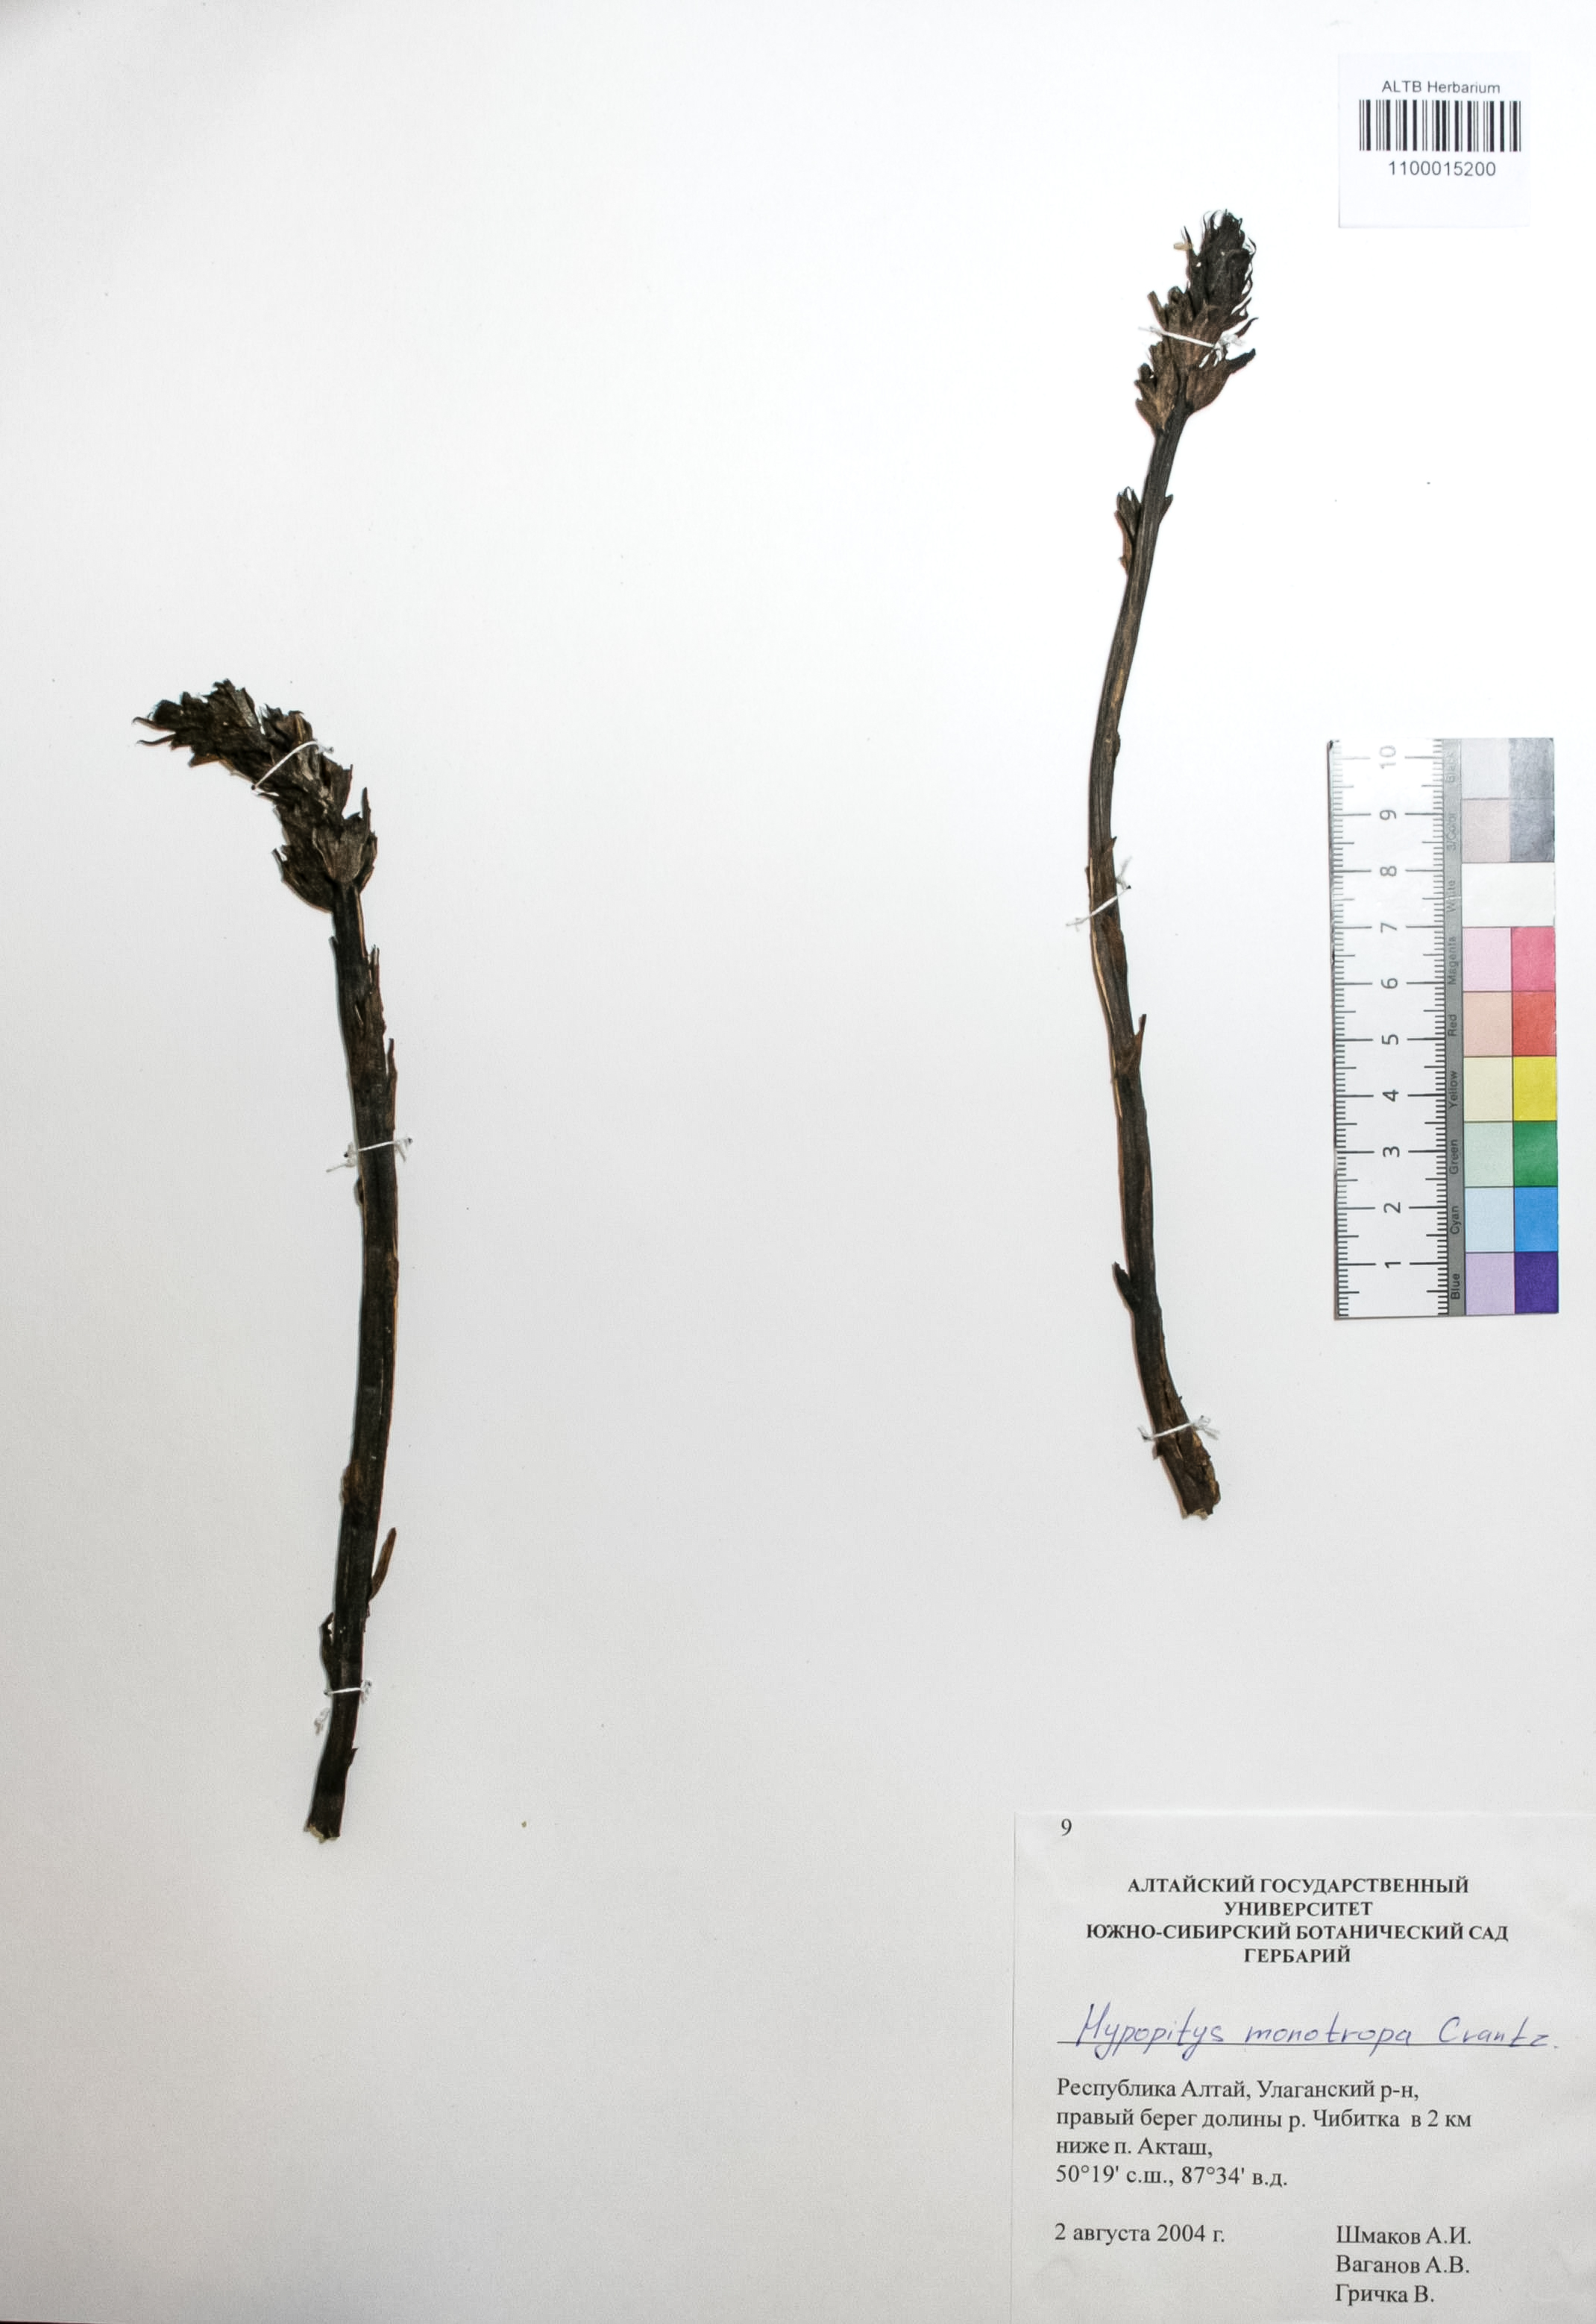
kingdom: Plantae
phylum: Tracheophyta
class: Magnoliopsida
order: Ericales
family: Ericaceae
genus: Hypopitys
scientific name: Hypopitys monotropa
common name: Yellow bird's-nest
